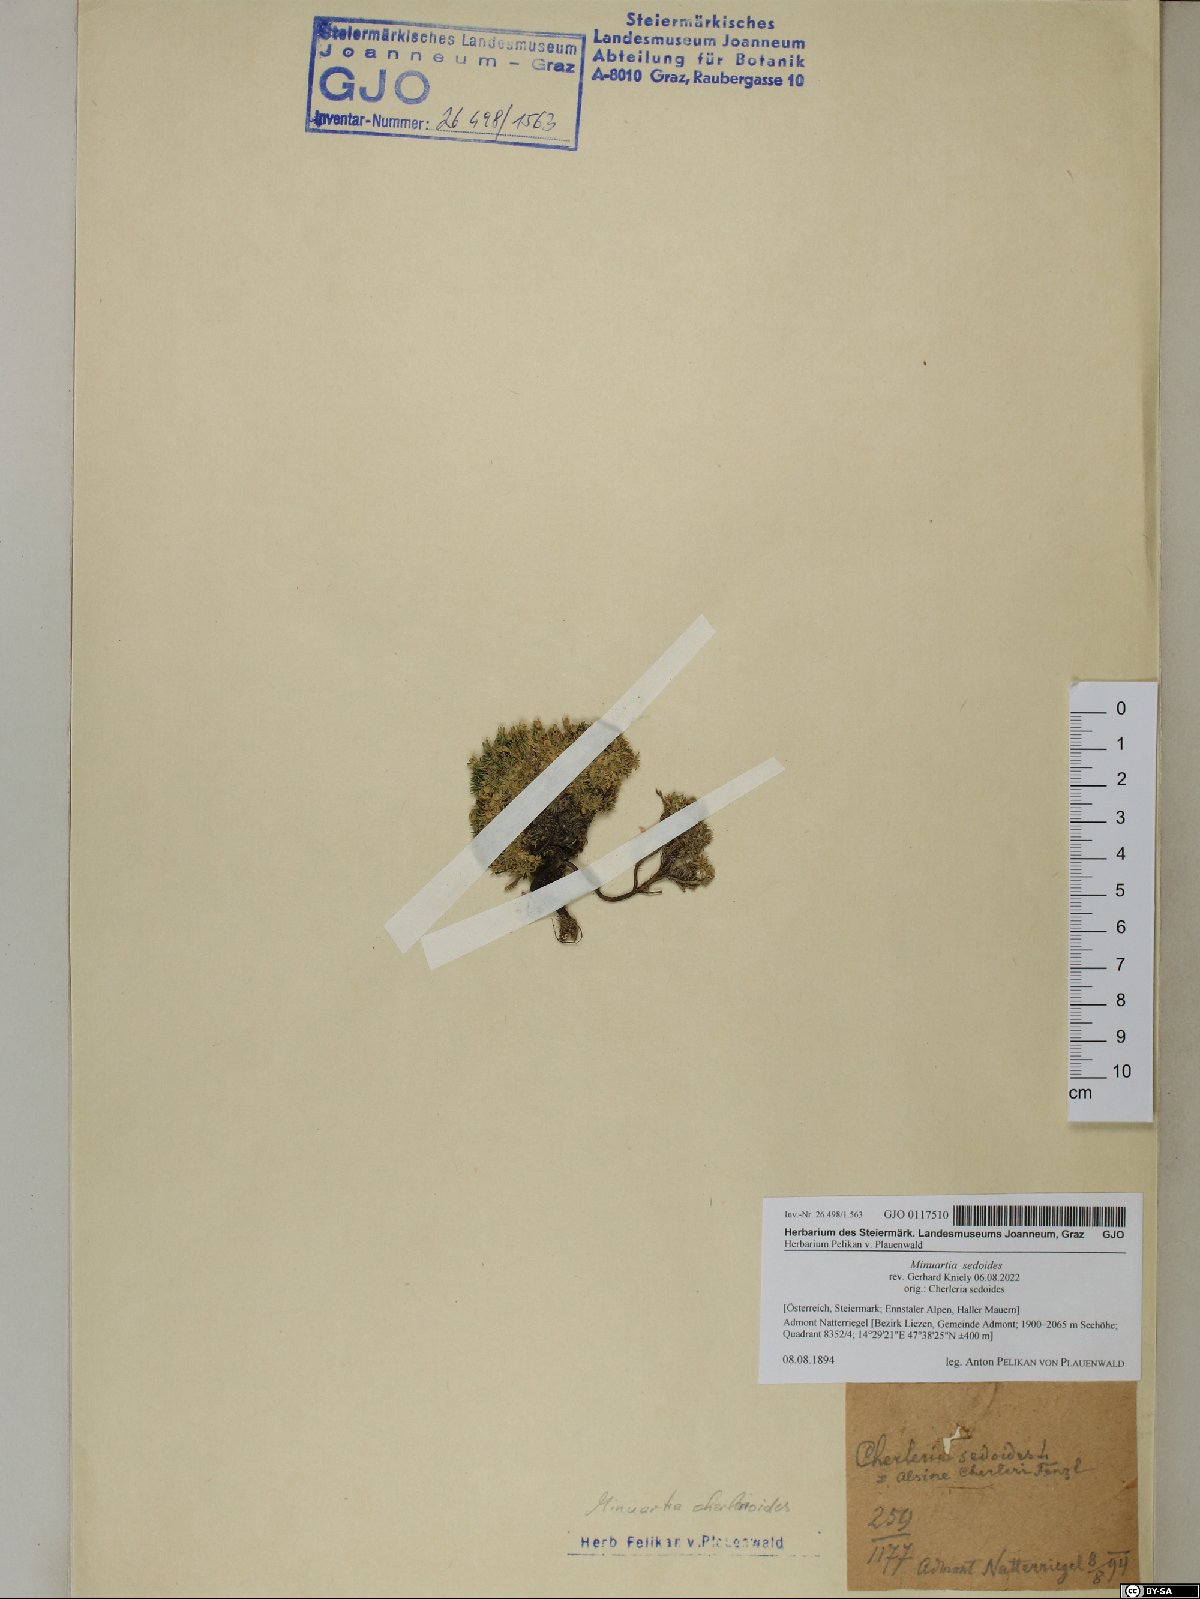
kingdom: Plantae
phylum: Tracheophyta
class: Magnoliopsida
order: Caryophyllales
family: Caryophyllaceae
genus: Cherleria
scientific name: Cherleria sedoides
